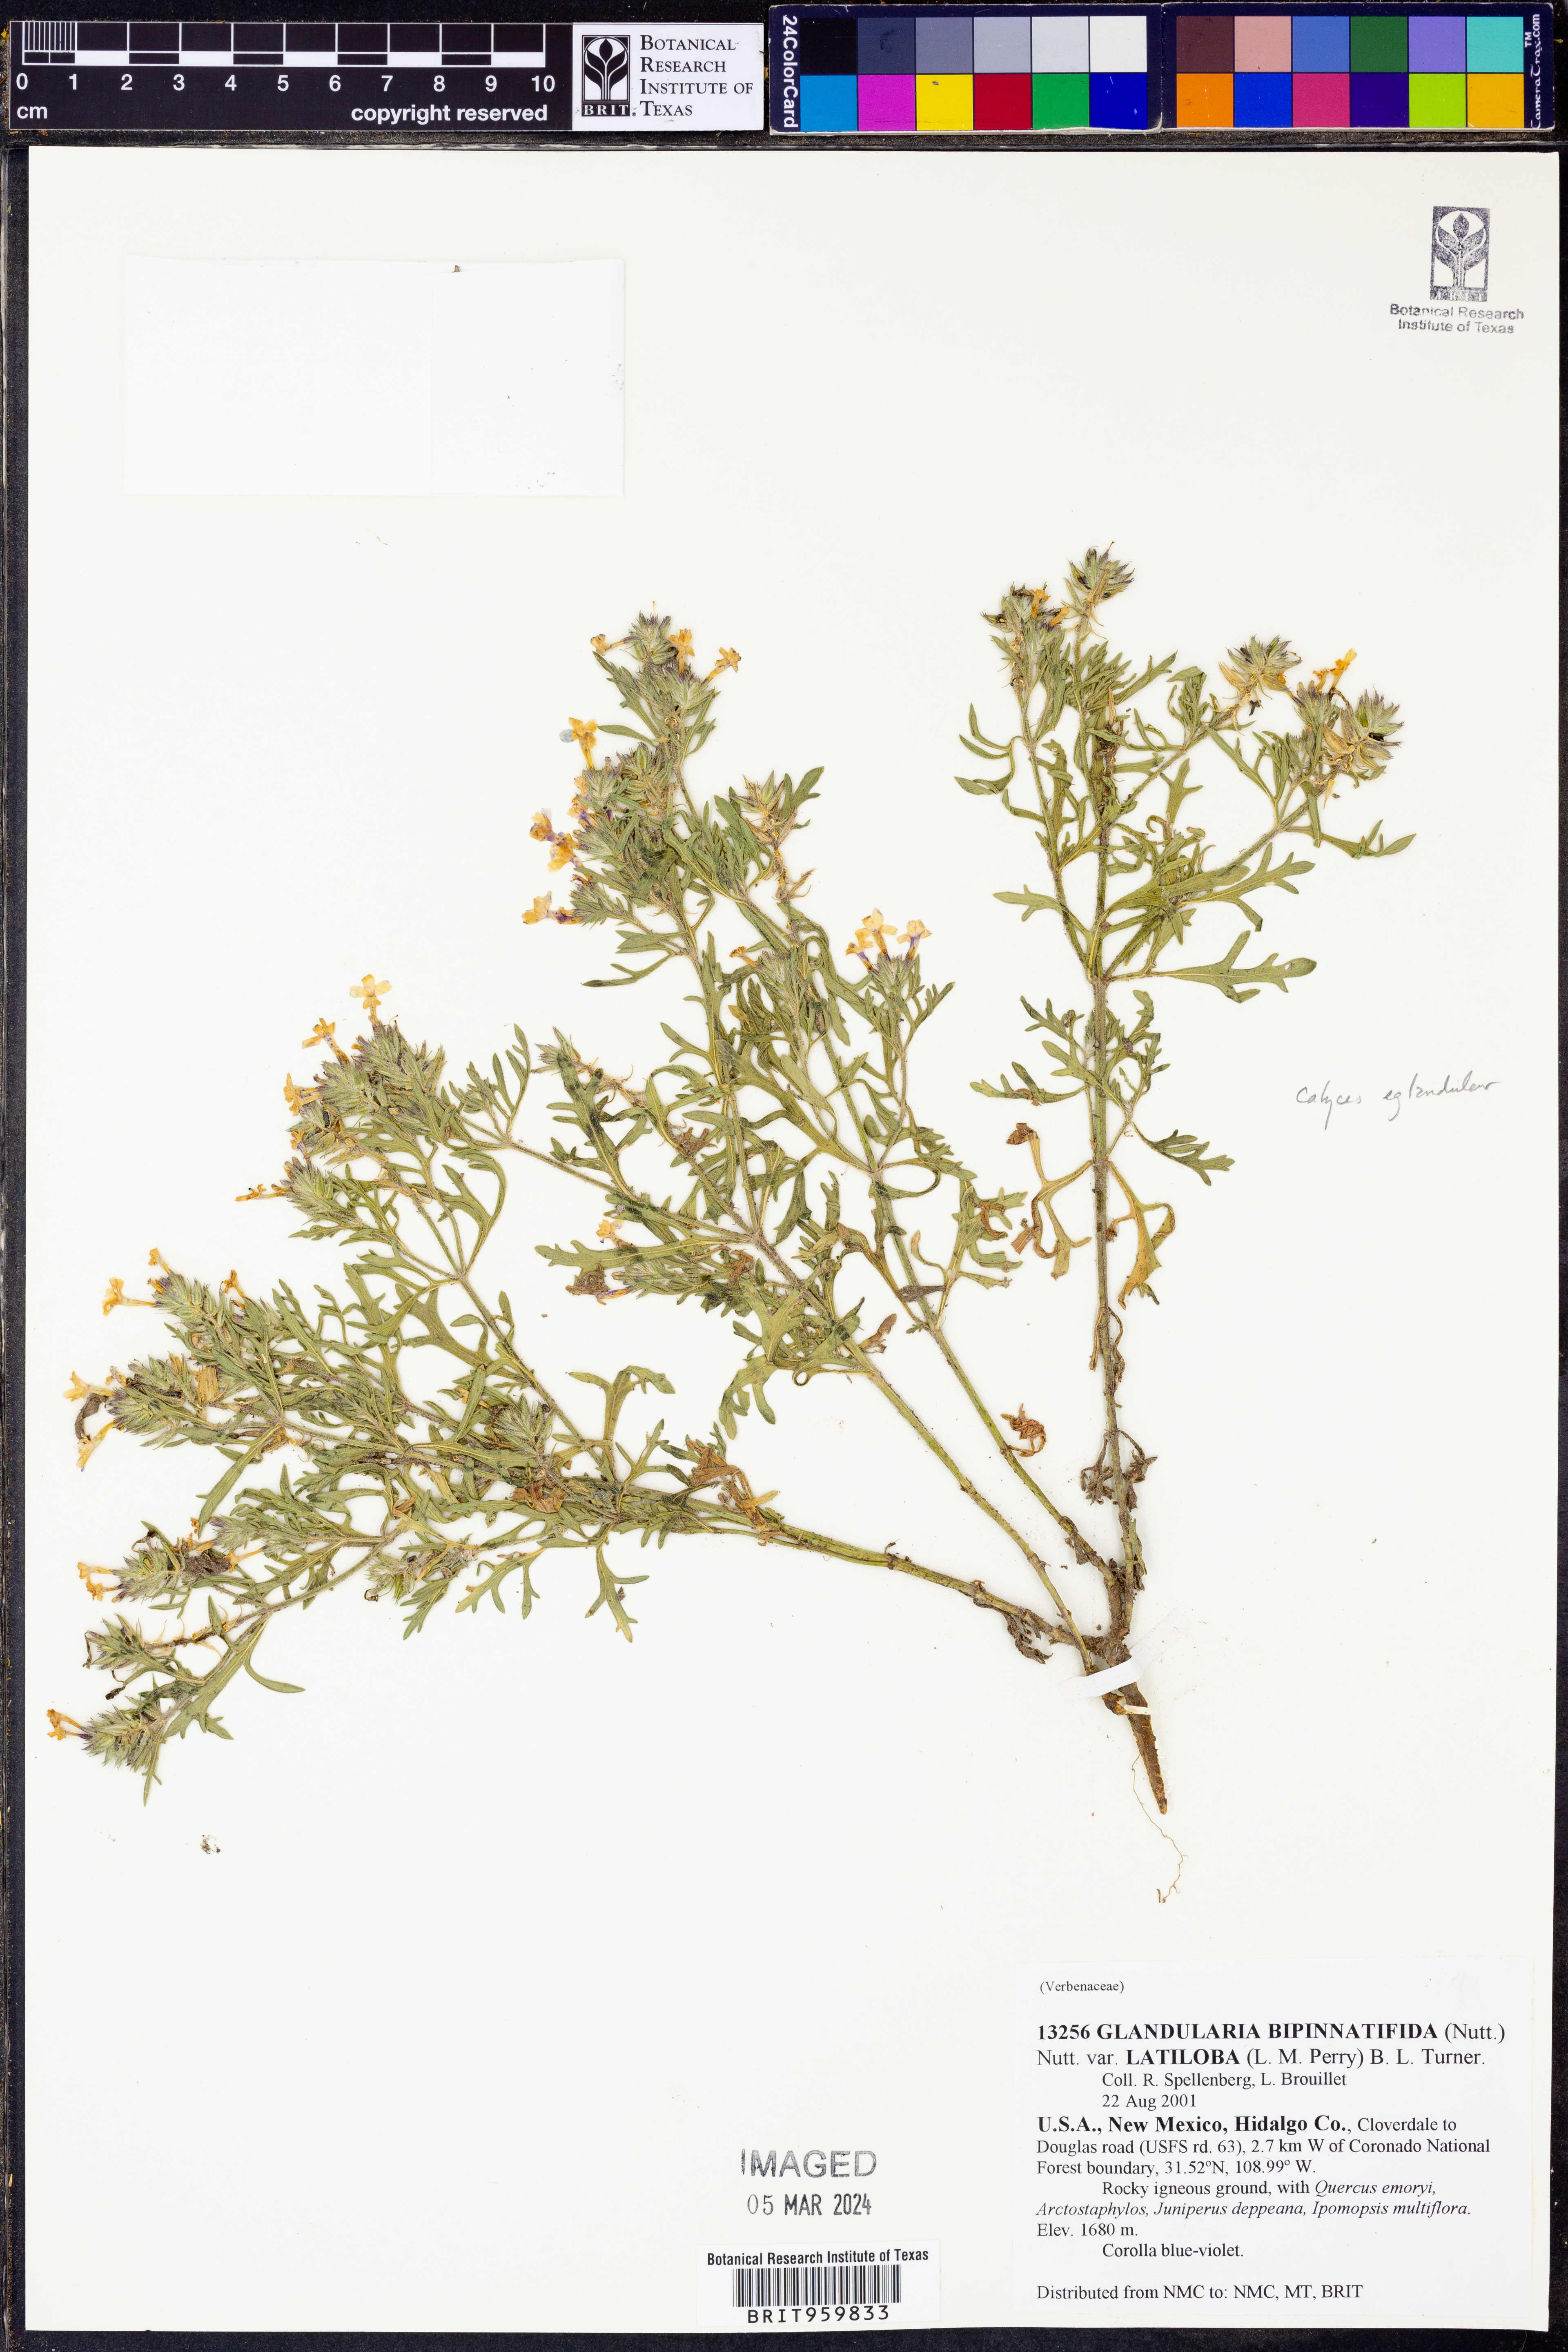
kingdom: Plantae
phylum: Tracheophyta
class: Magnoliopsida
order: Lamiales
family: Verbenaceae
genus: Verbena
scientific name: Verbena bipinnatifida
